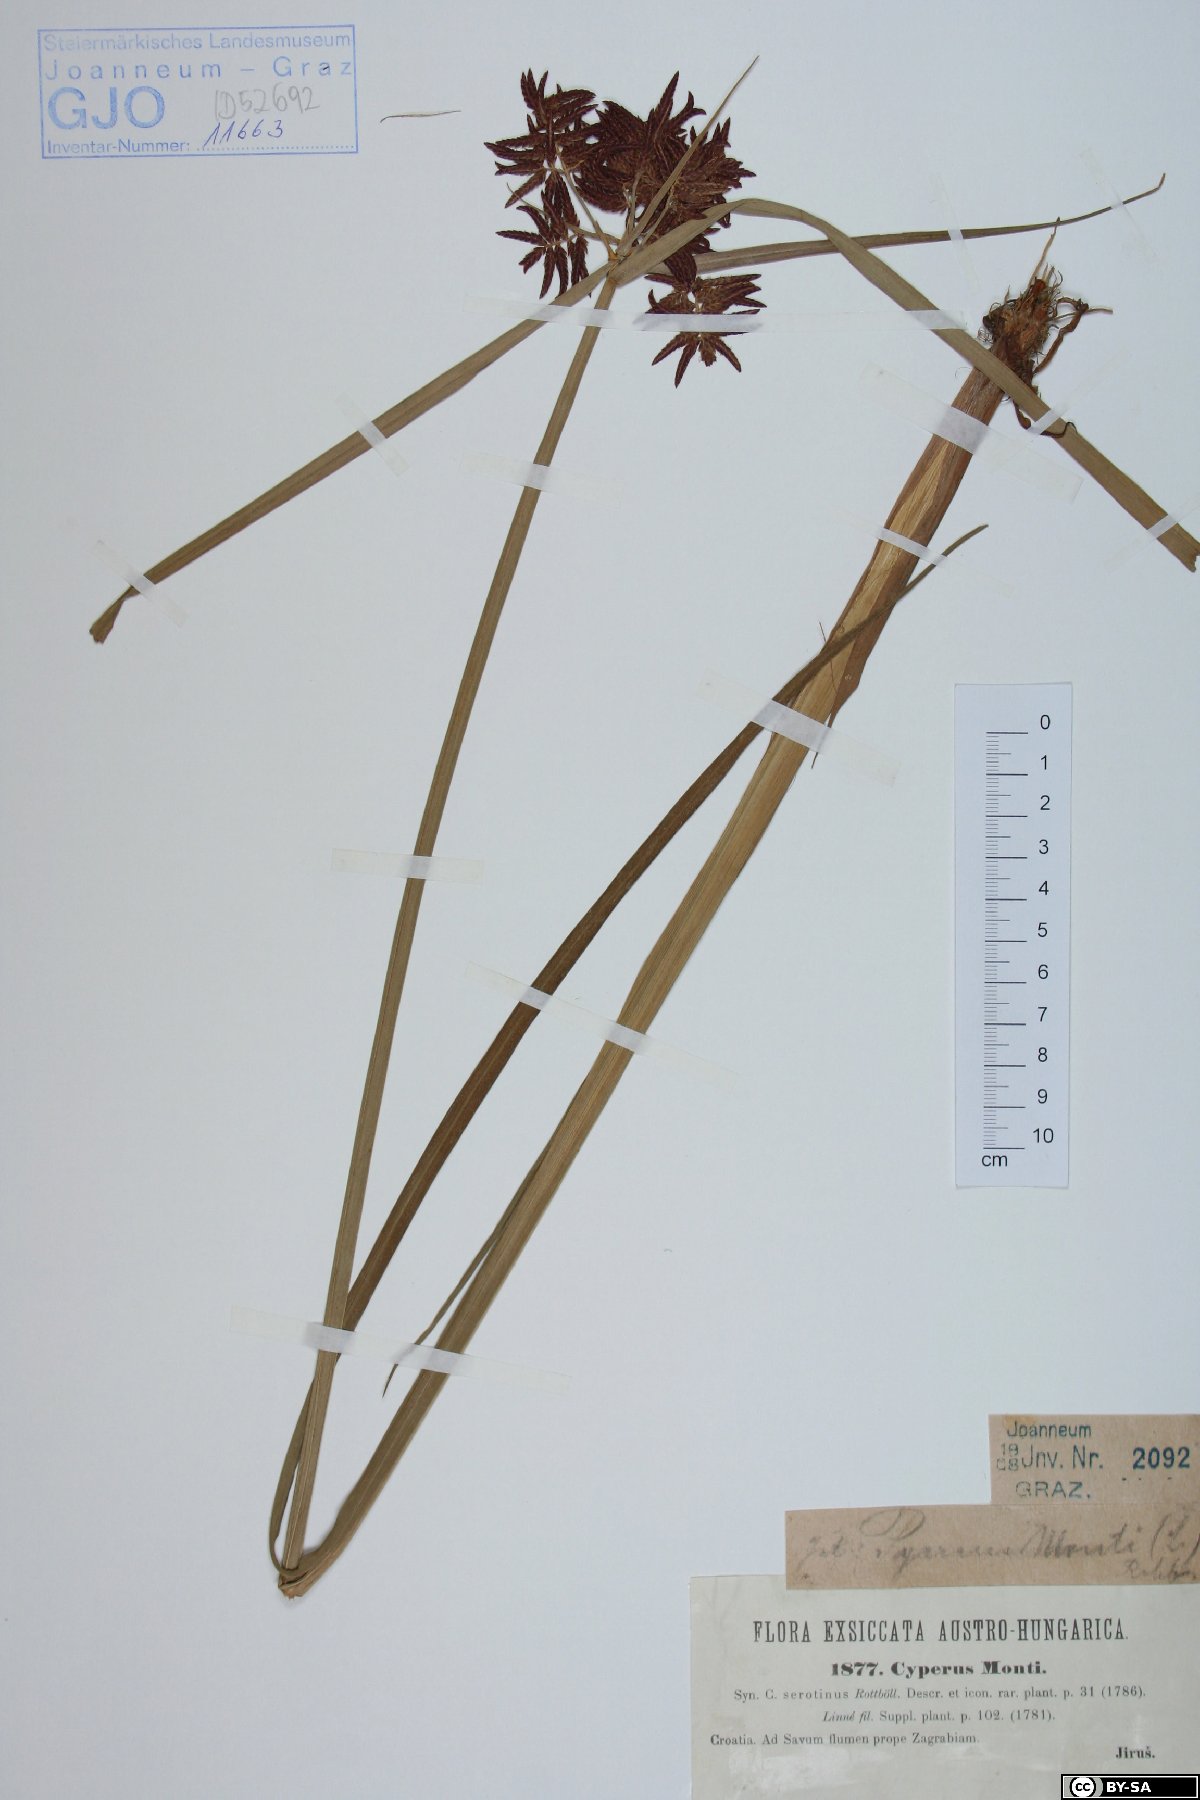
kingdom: Plantae
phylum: Tracheophyta
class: Liliopsida
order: Poales
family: Cyperaceae
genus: Cyperus
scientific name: Cyperus serotinus
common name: Tidalmarsh flatsedge
